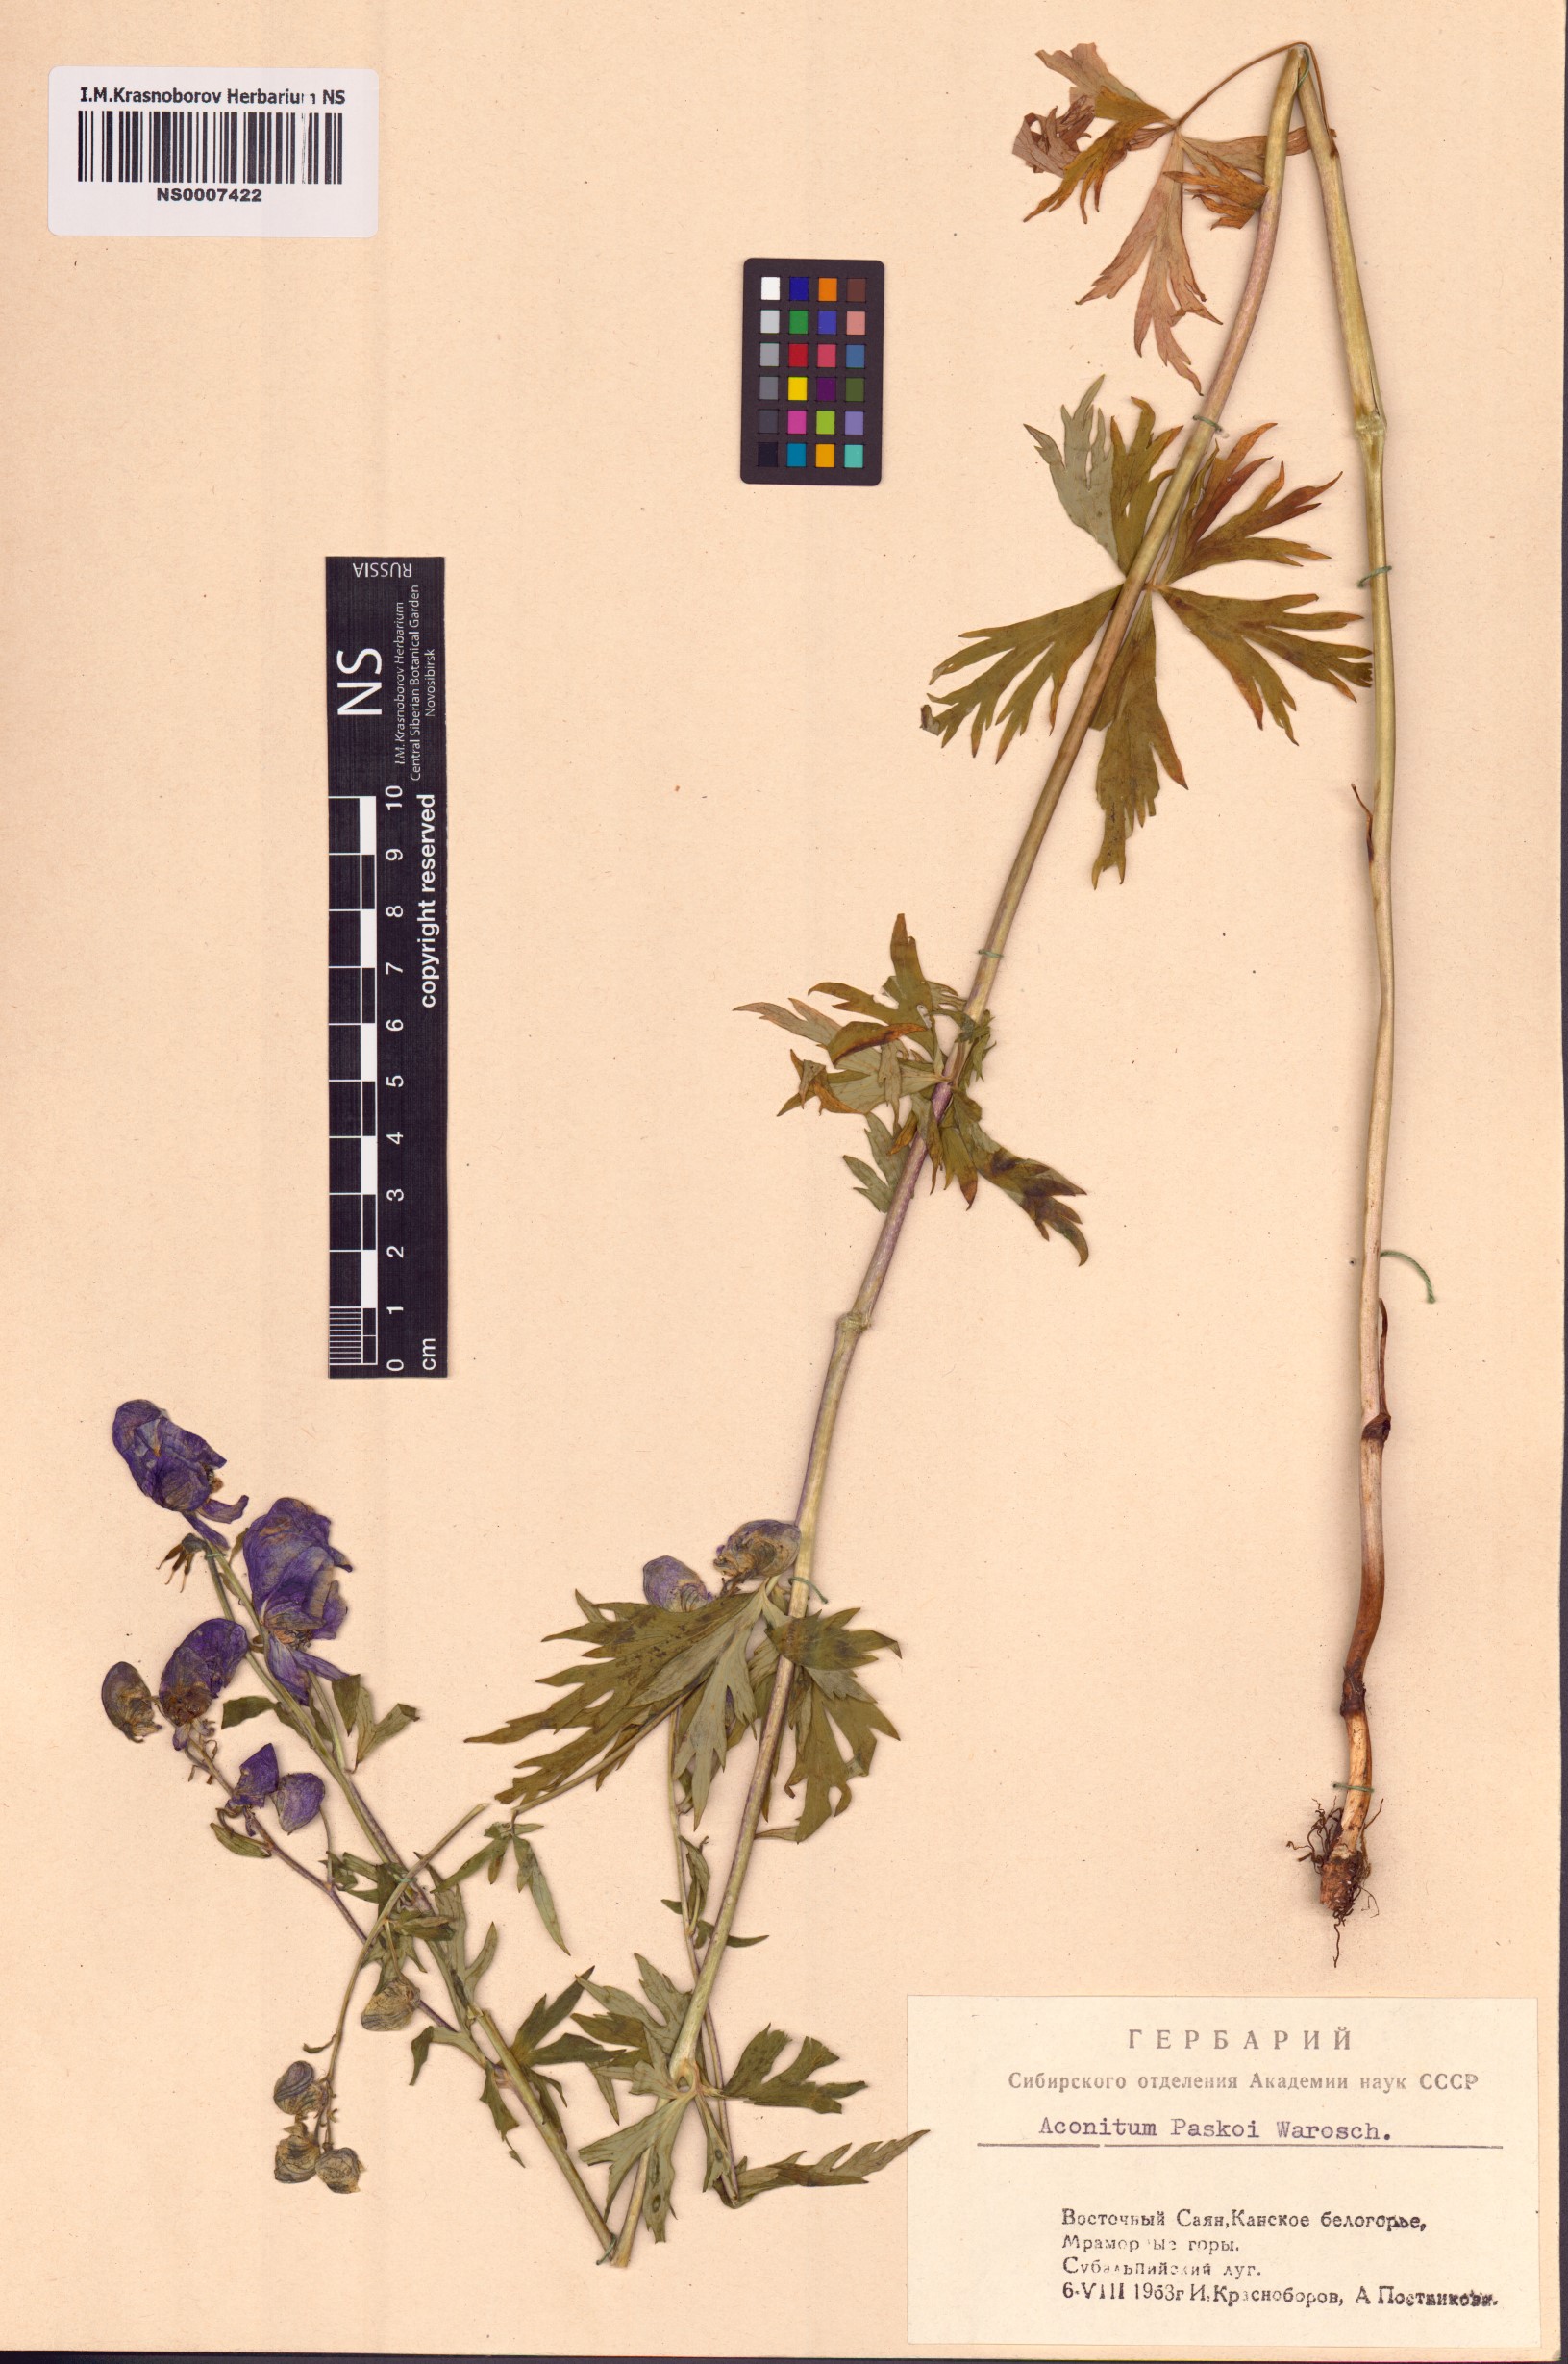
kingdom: Plantae
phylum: Tracheophyta
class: Magnoliopsida
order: Ranunculales
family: Ranunculaceae
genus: Aconitum
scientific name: Aconitum pascoi
